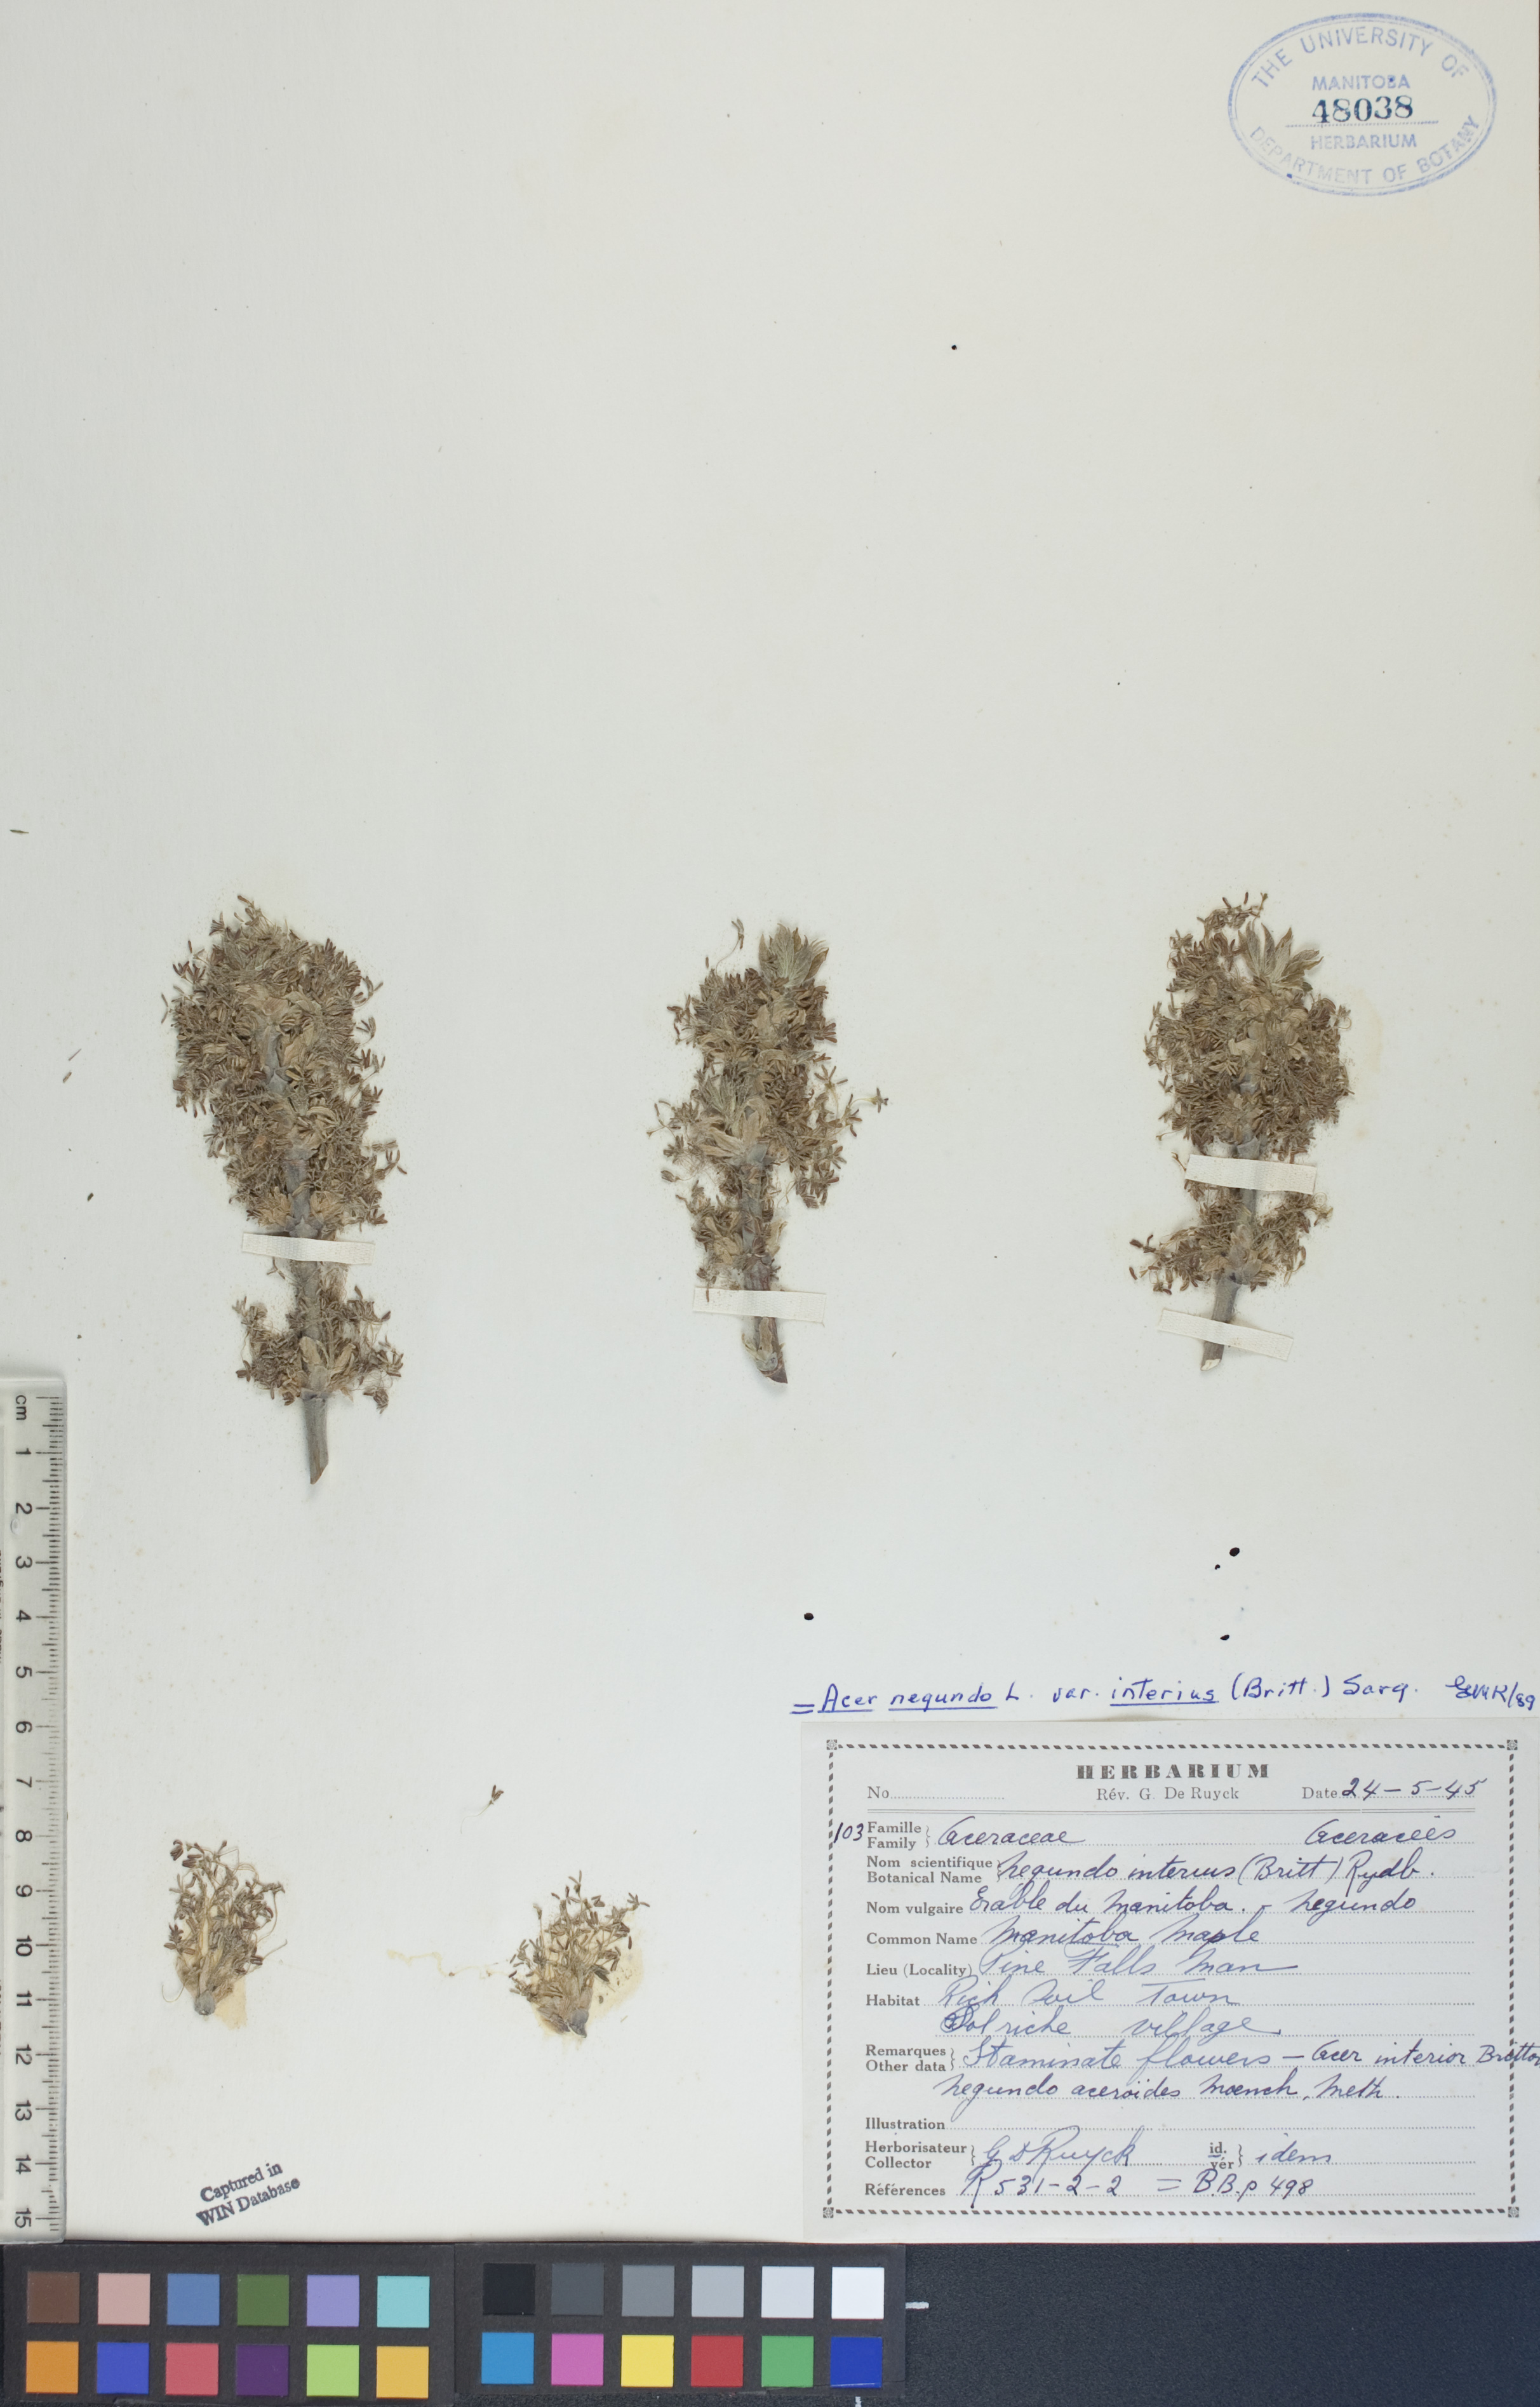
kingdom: Plantae
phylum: Tracheophyta
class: Magnoliopsida
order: Sapindales
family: Sapindaceae
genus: Acer
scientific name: Acer negundo
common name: Ashleaf maple
